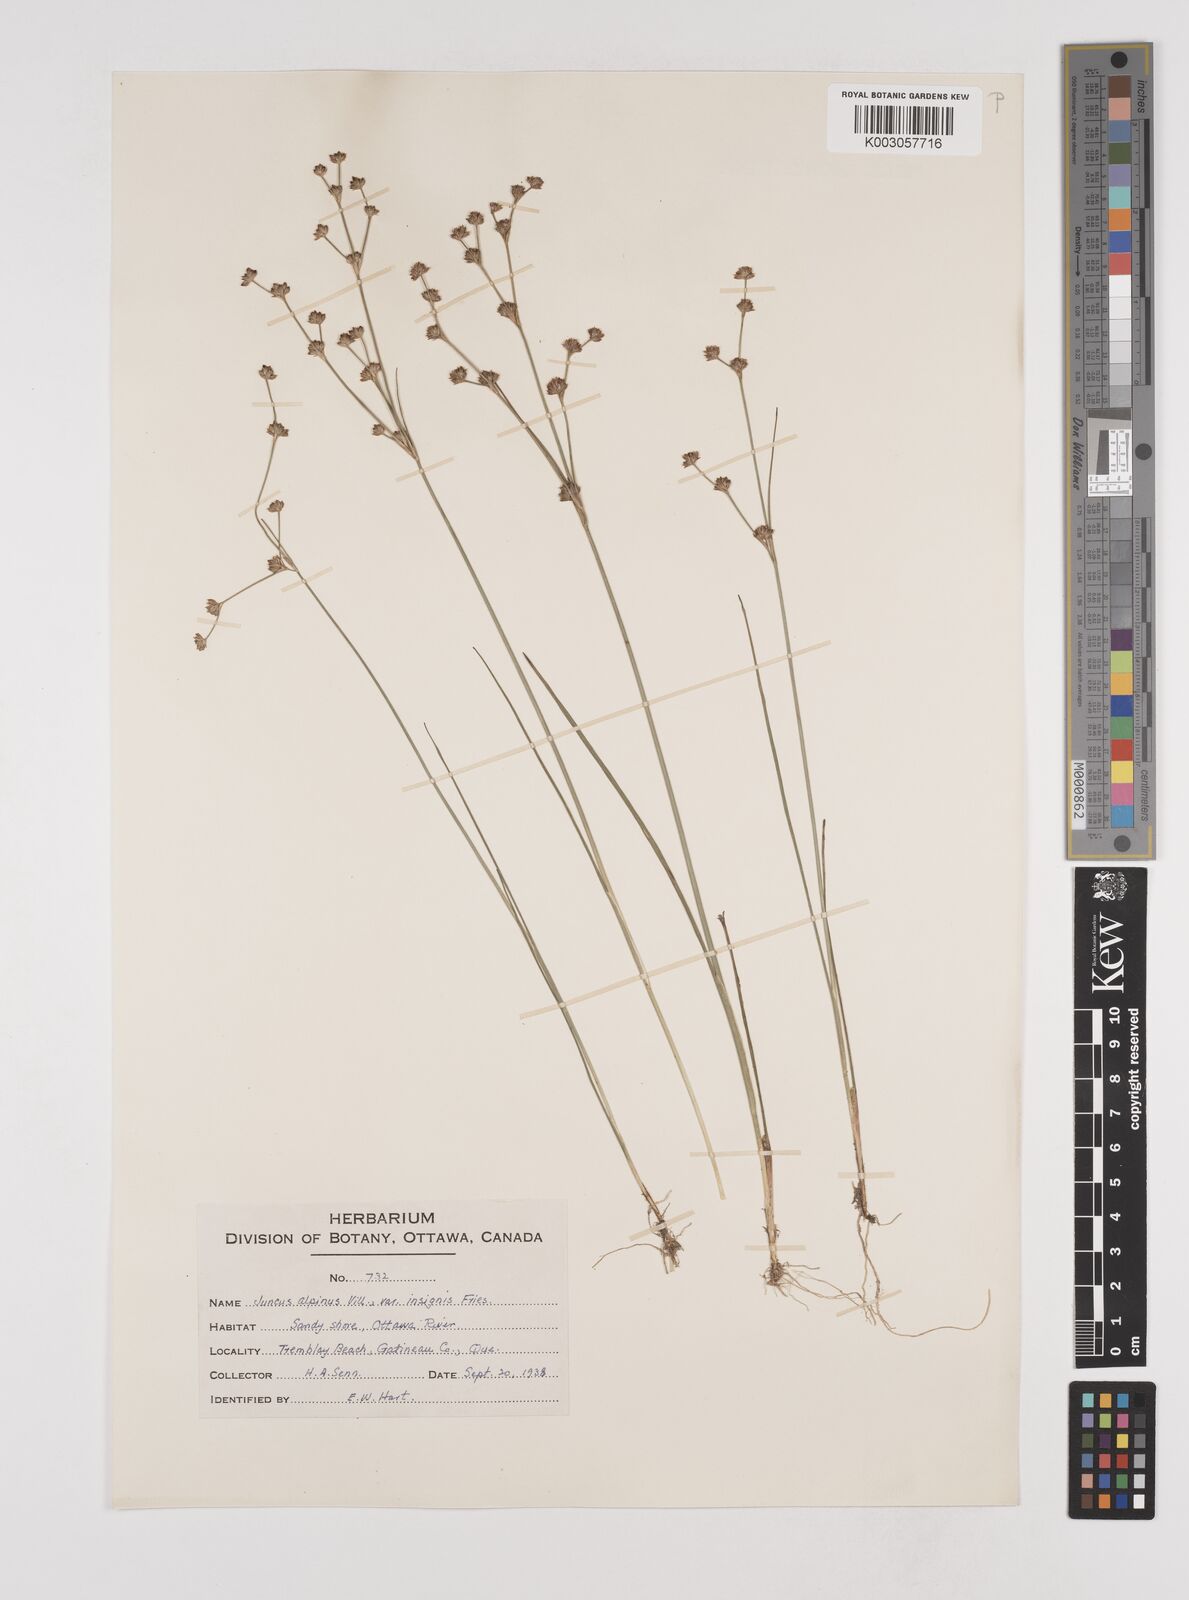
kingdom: Plantae
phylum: Tracheophyta
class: Liliopsida
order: Poales
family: Juncaceae
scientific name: Juncaceae
